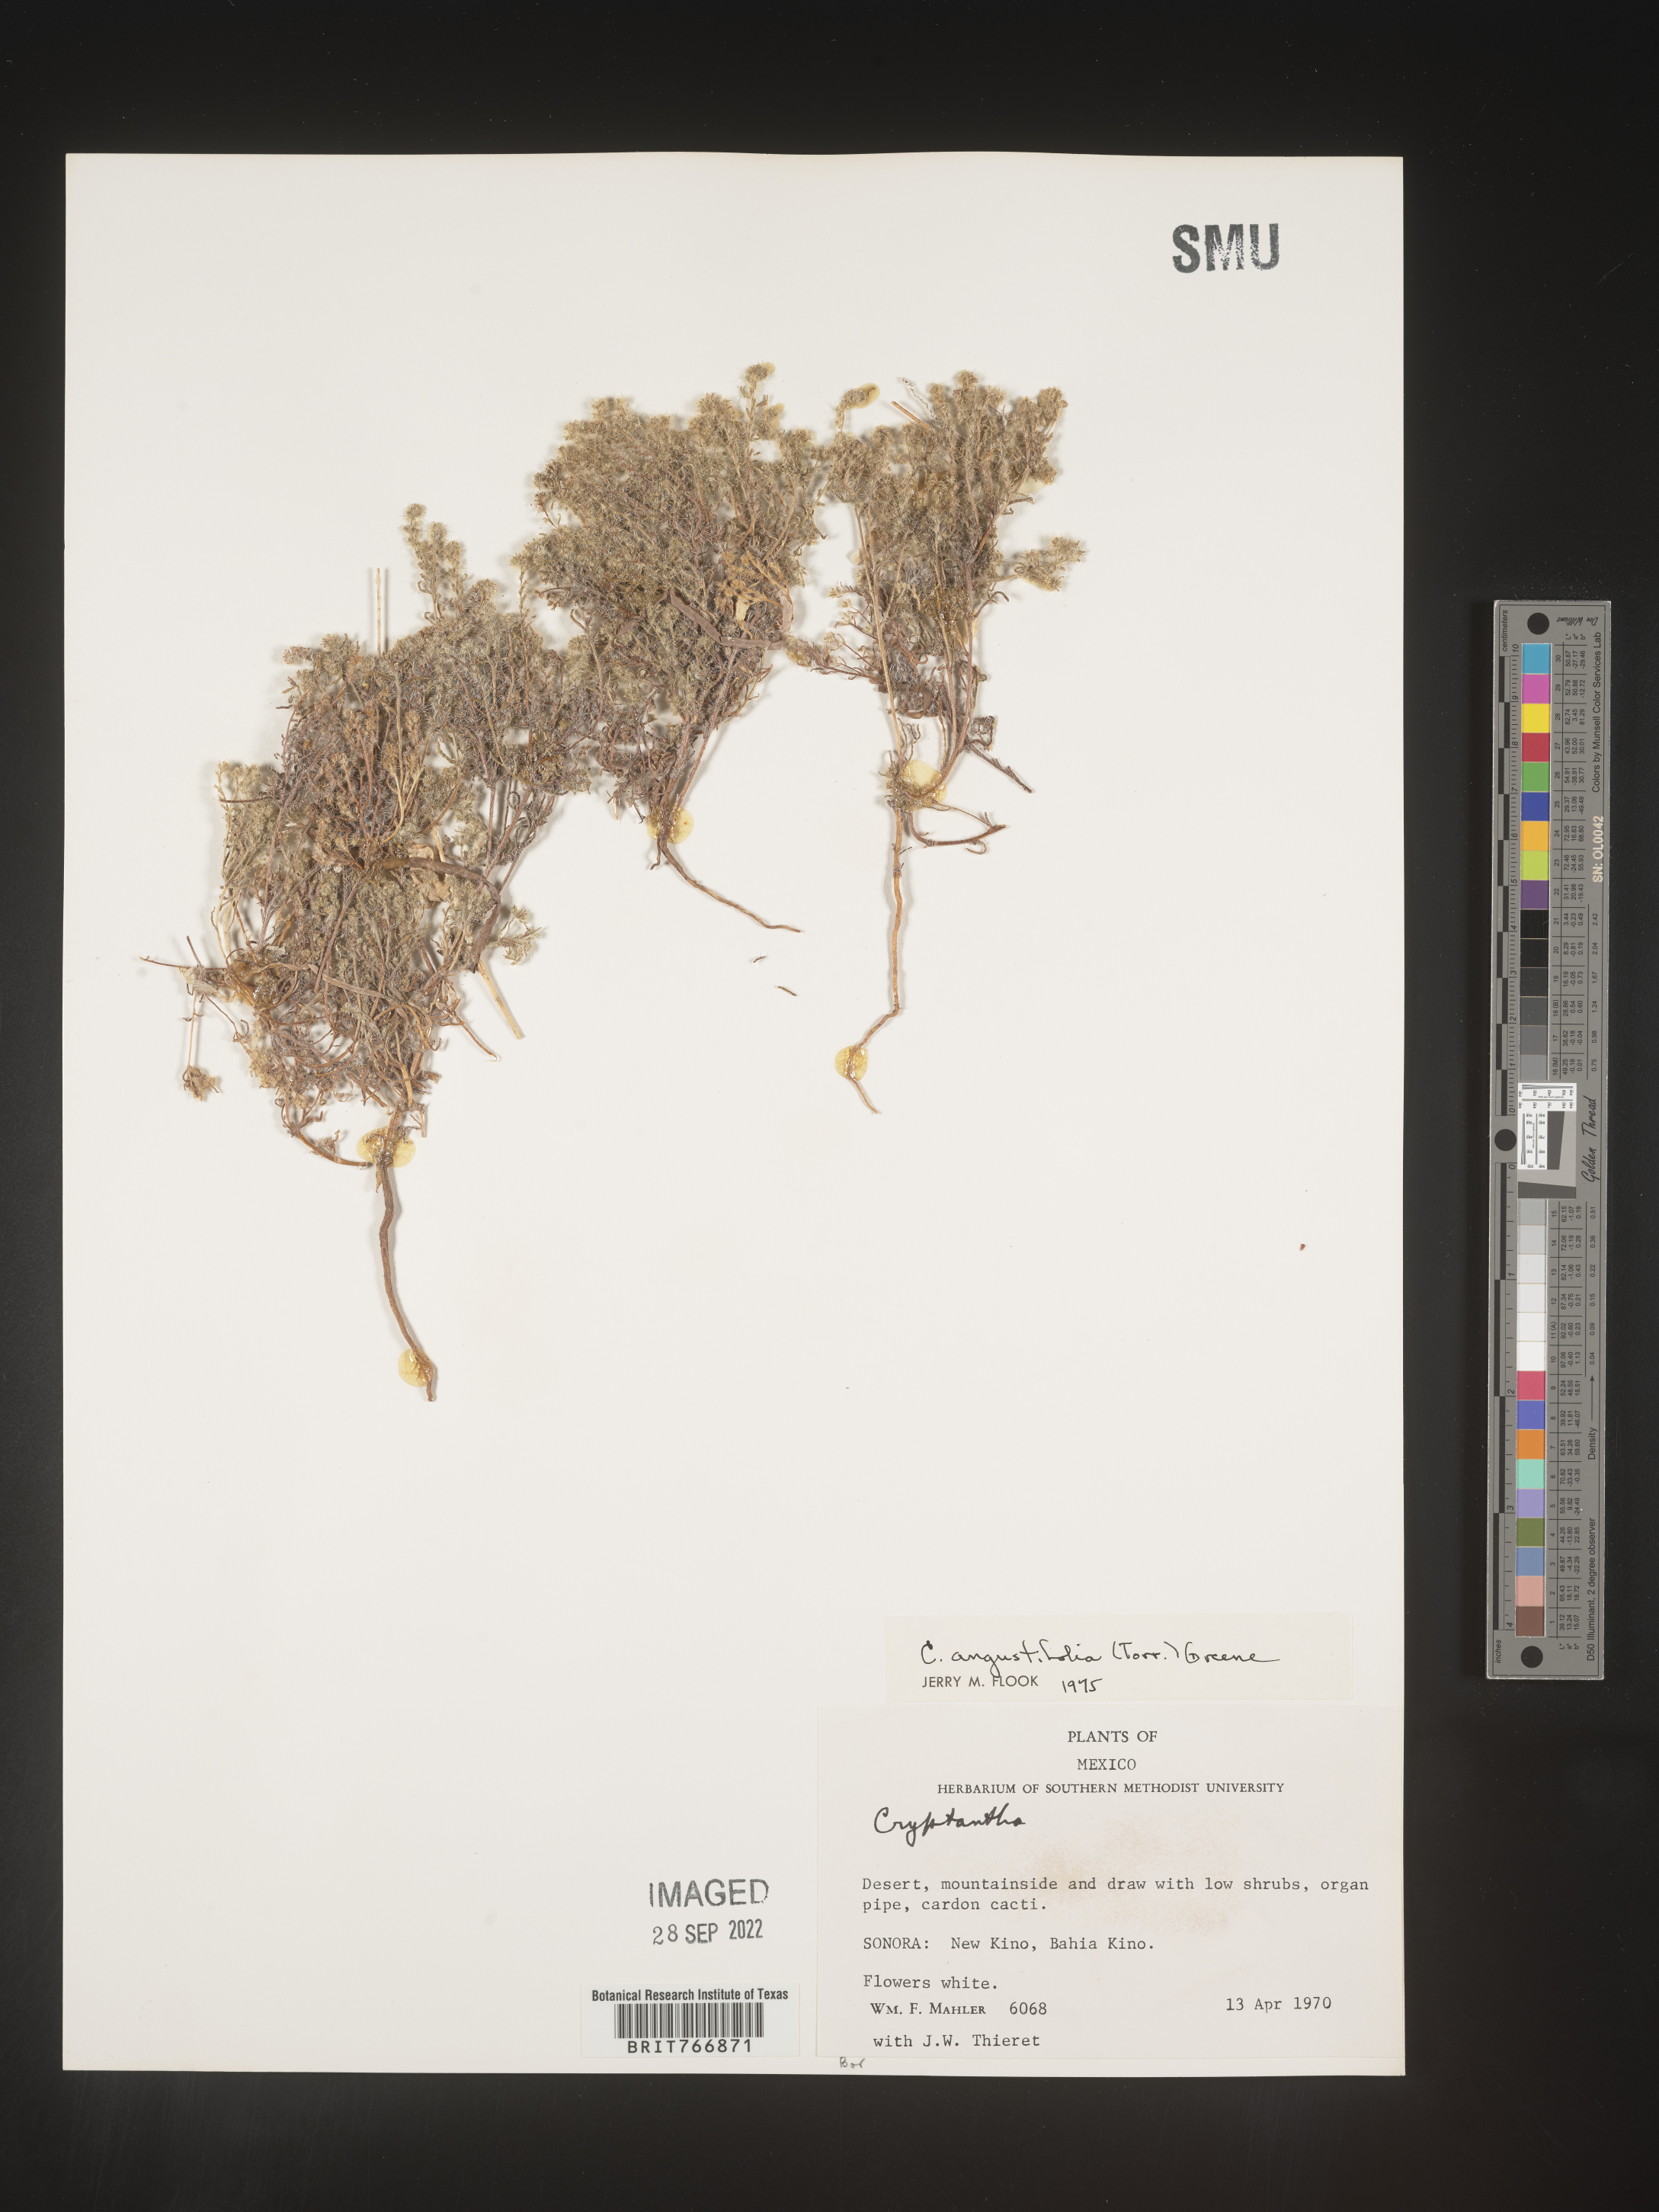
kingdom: Plantae
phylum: Tracheophyta
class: Magnoliopsida
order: Boraginales
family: Boraginaceae
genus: Cryptantha
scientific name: Cryptantha
